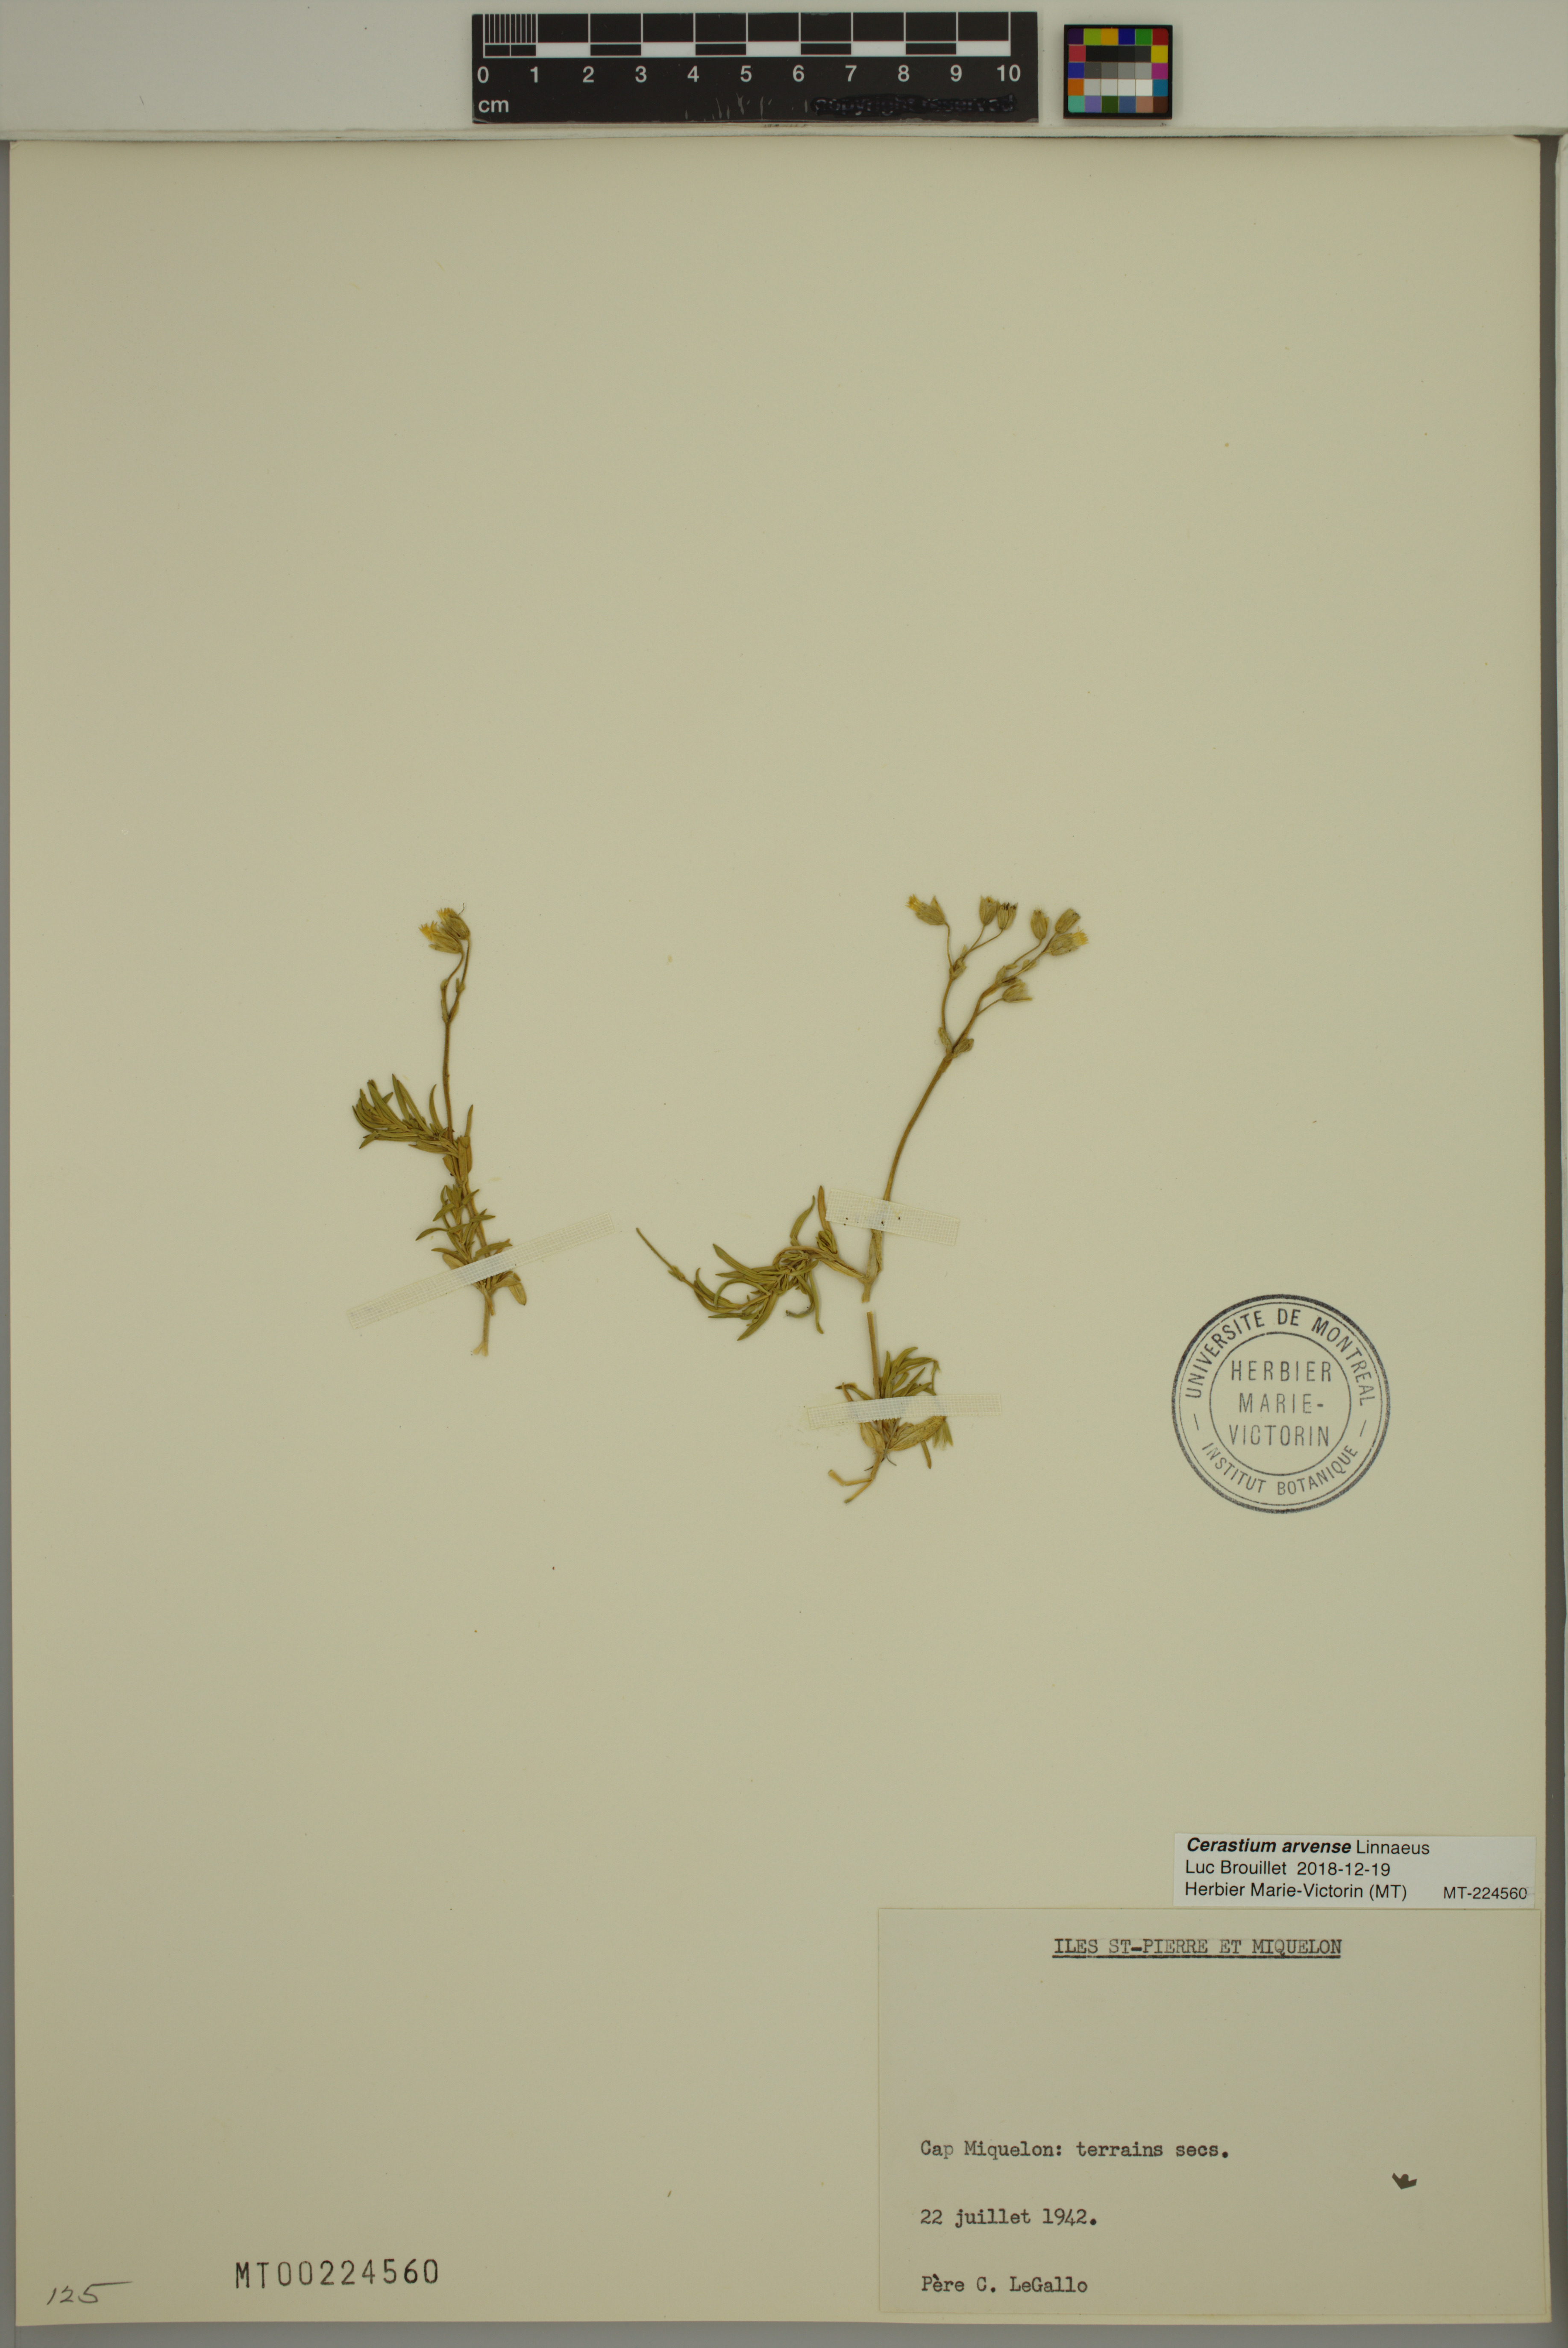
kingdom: Plantae
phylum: Tracheophyta
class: Magnoliopsida
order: Caryophyllales
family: Caryophyllaceae
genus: Cerastium
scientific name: Cerastium arvense
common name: Field mouse-ear
